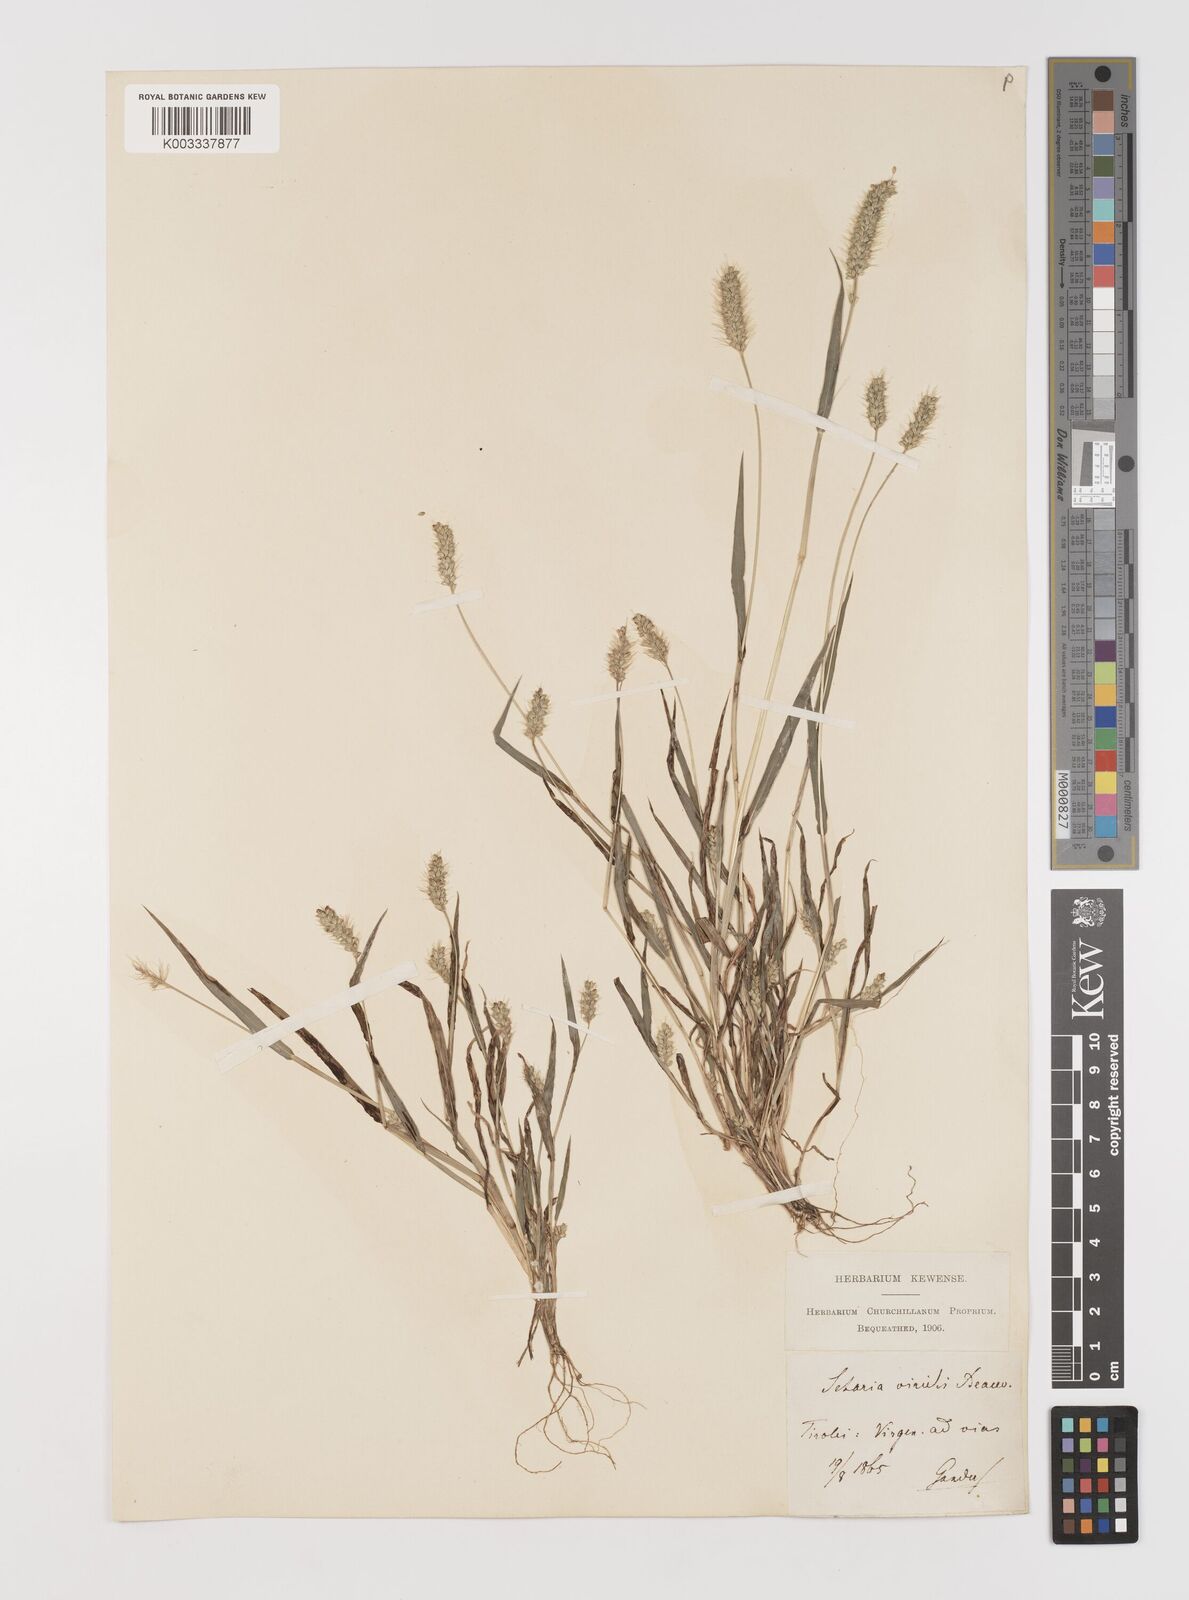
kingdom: Plantae
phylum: Tracheophyta
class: Liliopsida
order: Poales
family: Poaceae
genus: Setaria
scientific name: Setaria viridis
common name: Green bristlegrass
